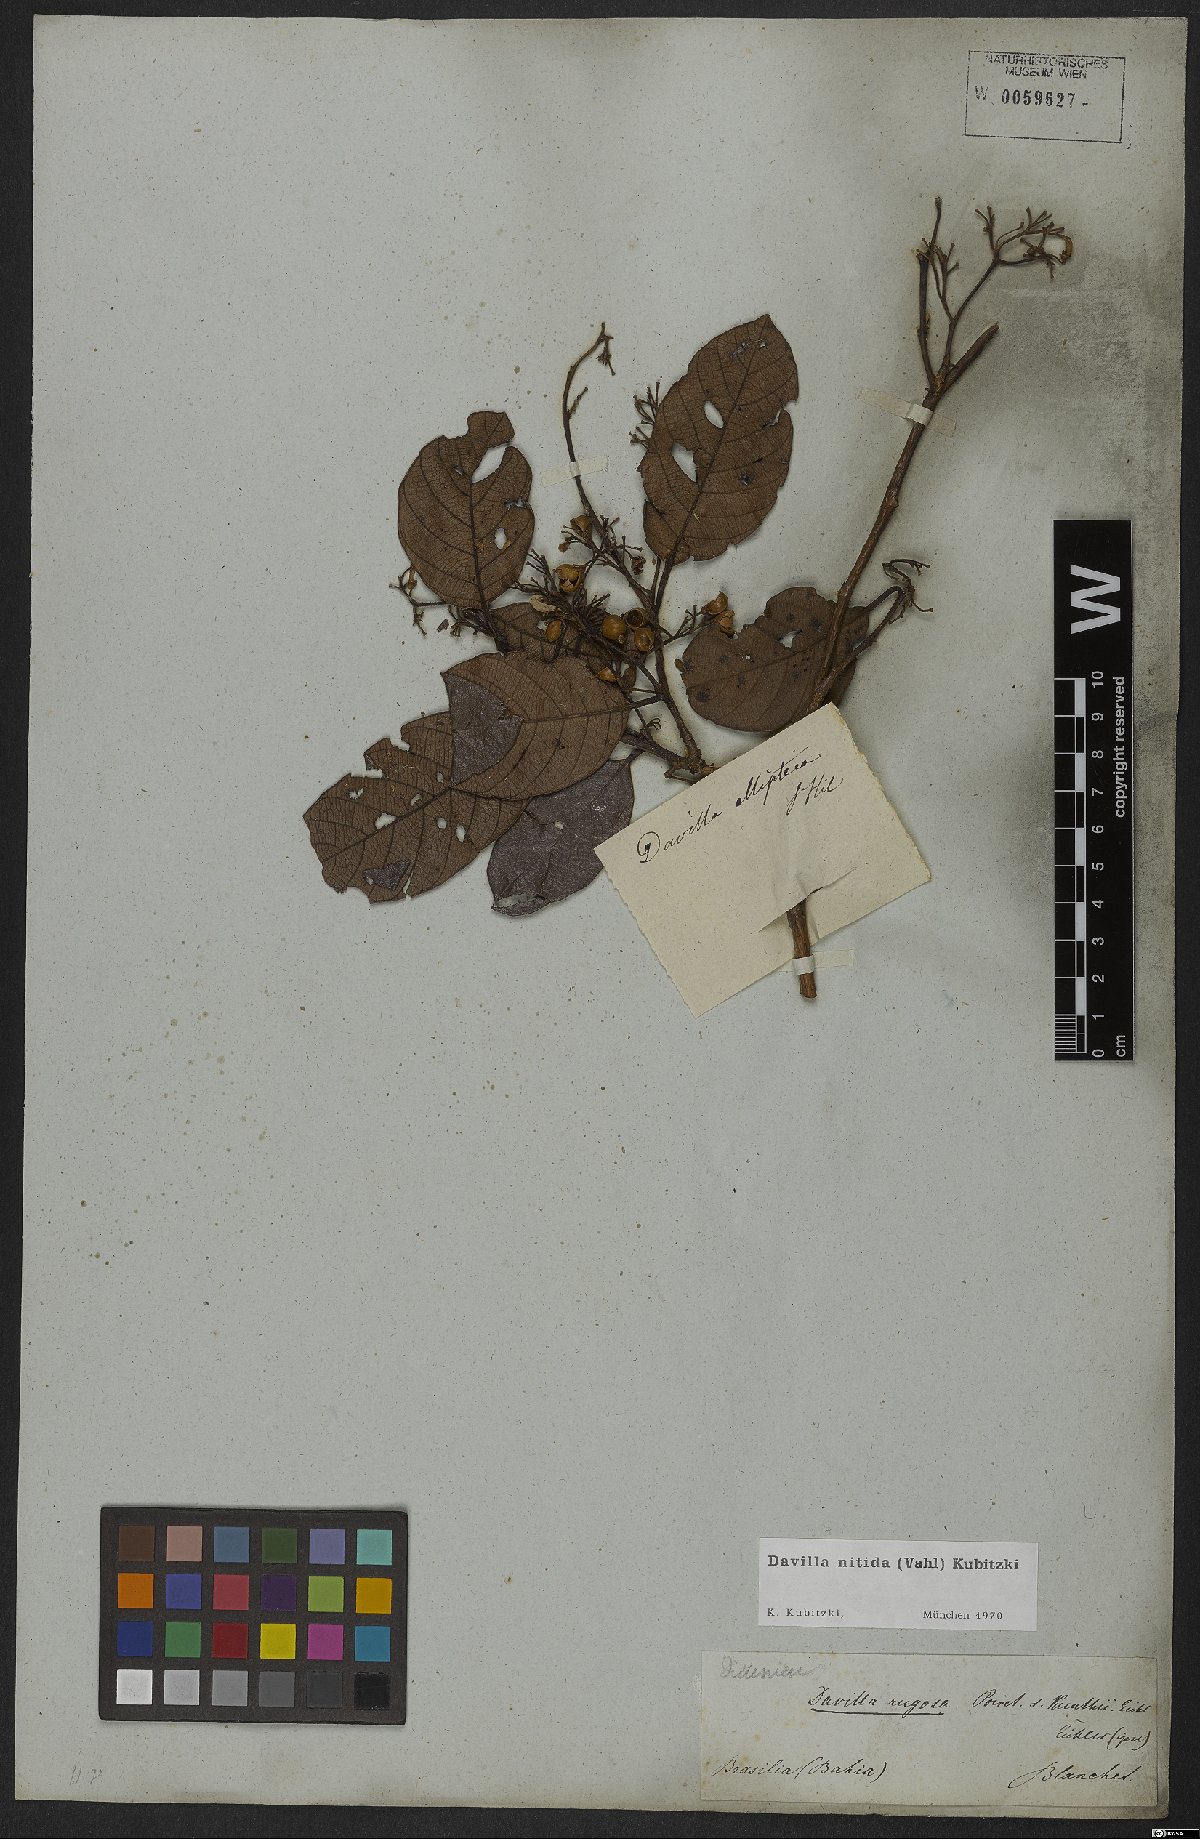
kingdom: Plantae
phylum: Tracheophyta
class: Magnoliopsida
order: Dilleniales
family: Dilleniaceae
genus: Davilla
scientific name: Davilla nitida
